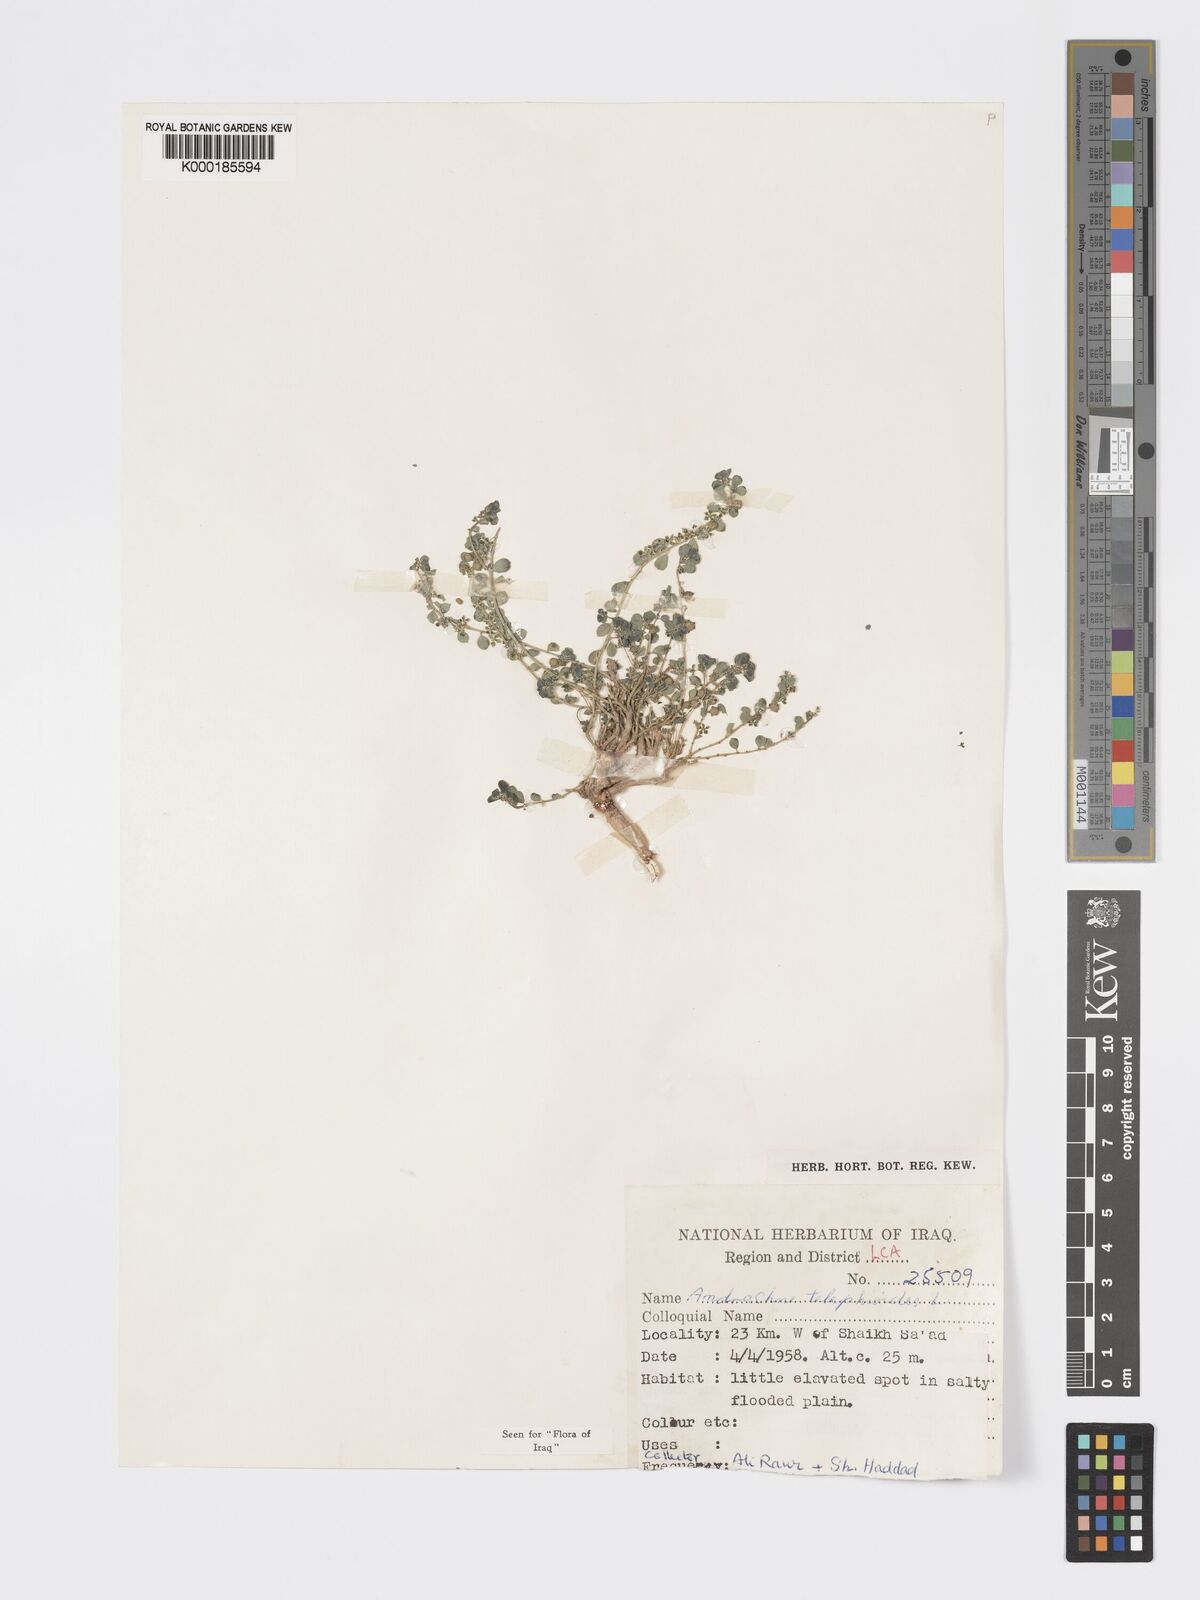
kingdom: Plantae
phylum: Tracheophyta
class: Magnoliopsida
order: Malpighiales
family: Phyllanthaceae
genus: Andrachne
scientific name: Andrachne telephioides
